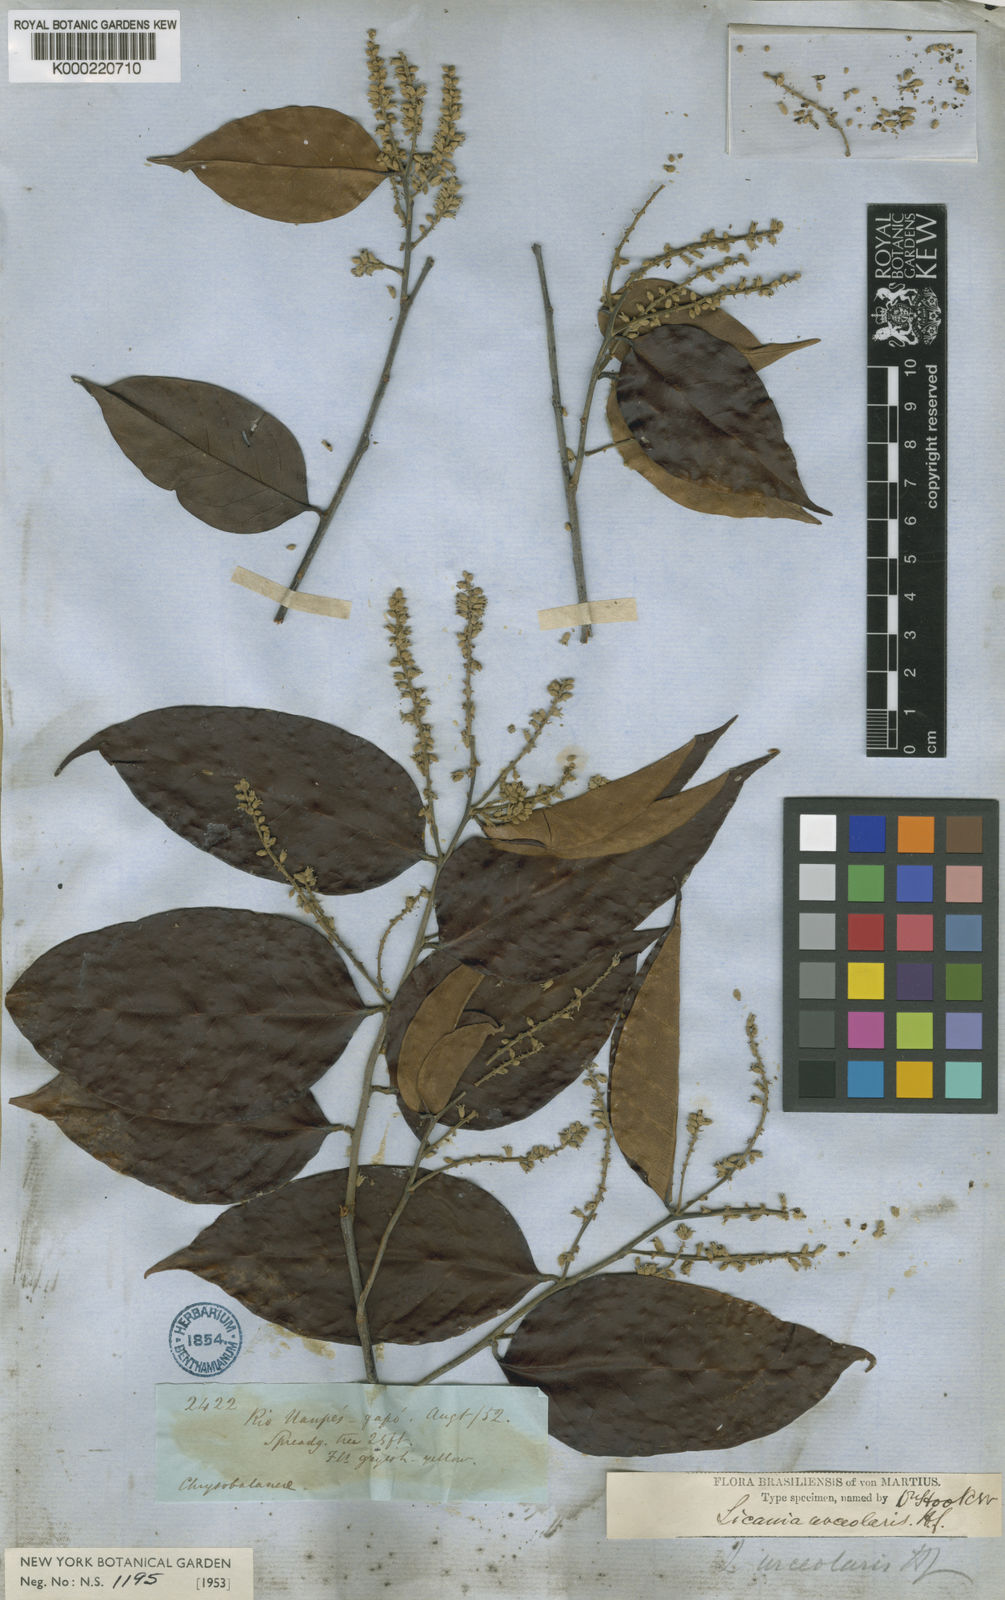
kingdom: Plantae
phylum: Tracheophyta
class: Magnoliopsida
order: Malpighiales
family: Chrysobalanaceae
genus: Licania
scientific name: Licania urceolaris
